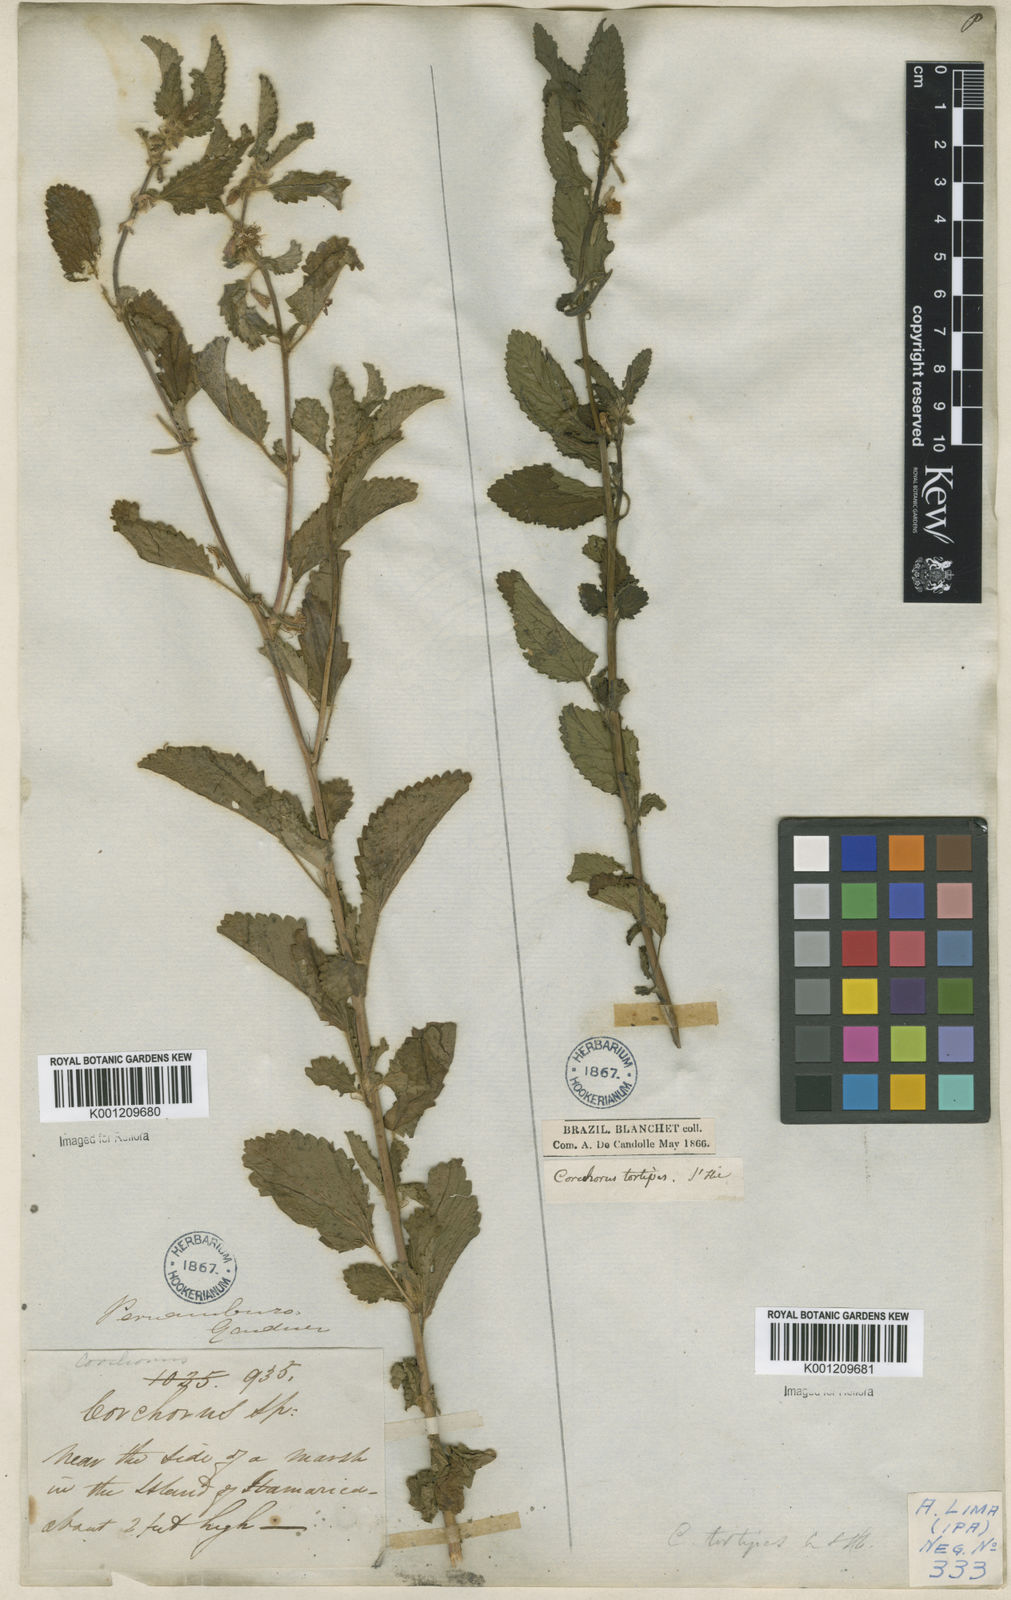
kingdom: Plantae
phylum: Tracheophyta
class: Magnoliopsida
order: Malvales
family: Malvaceae
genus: Corchorus
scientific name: Corchorus hirtus
